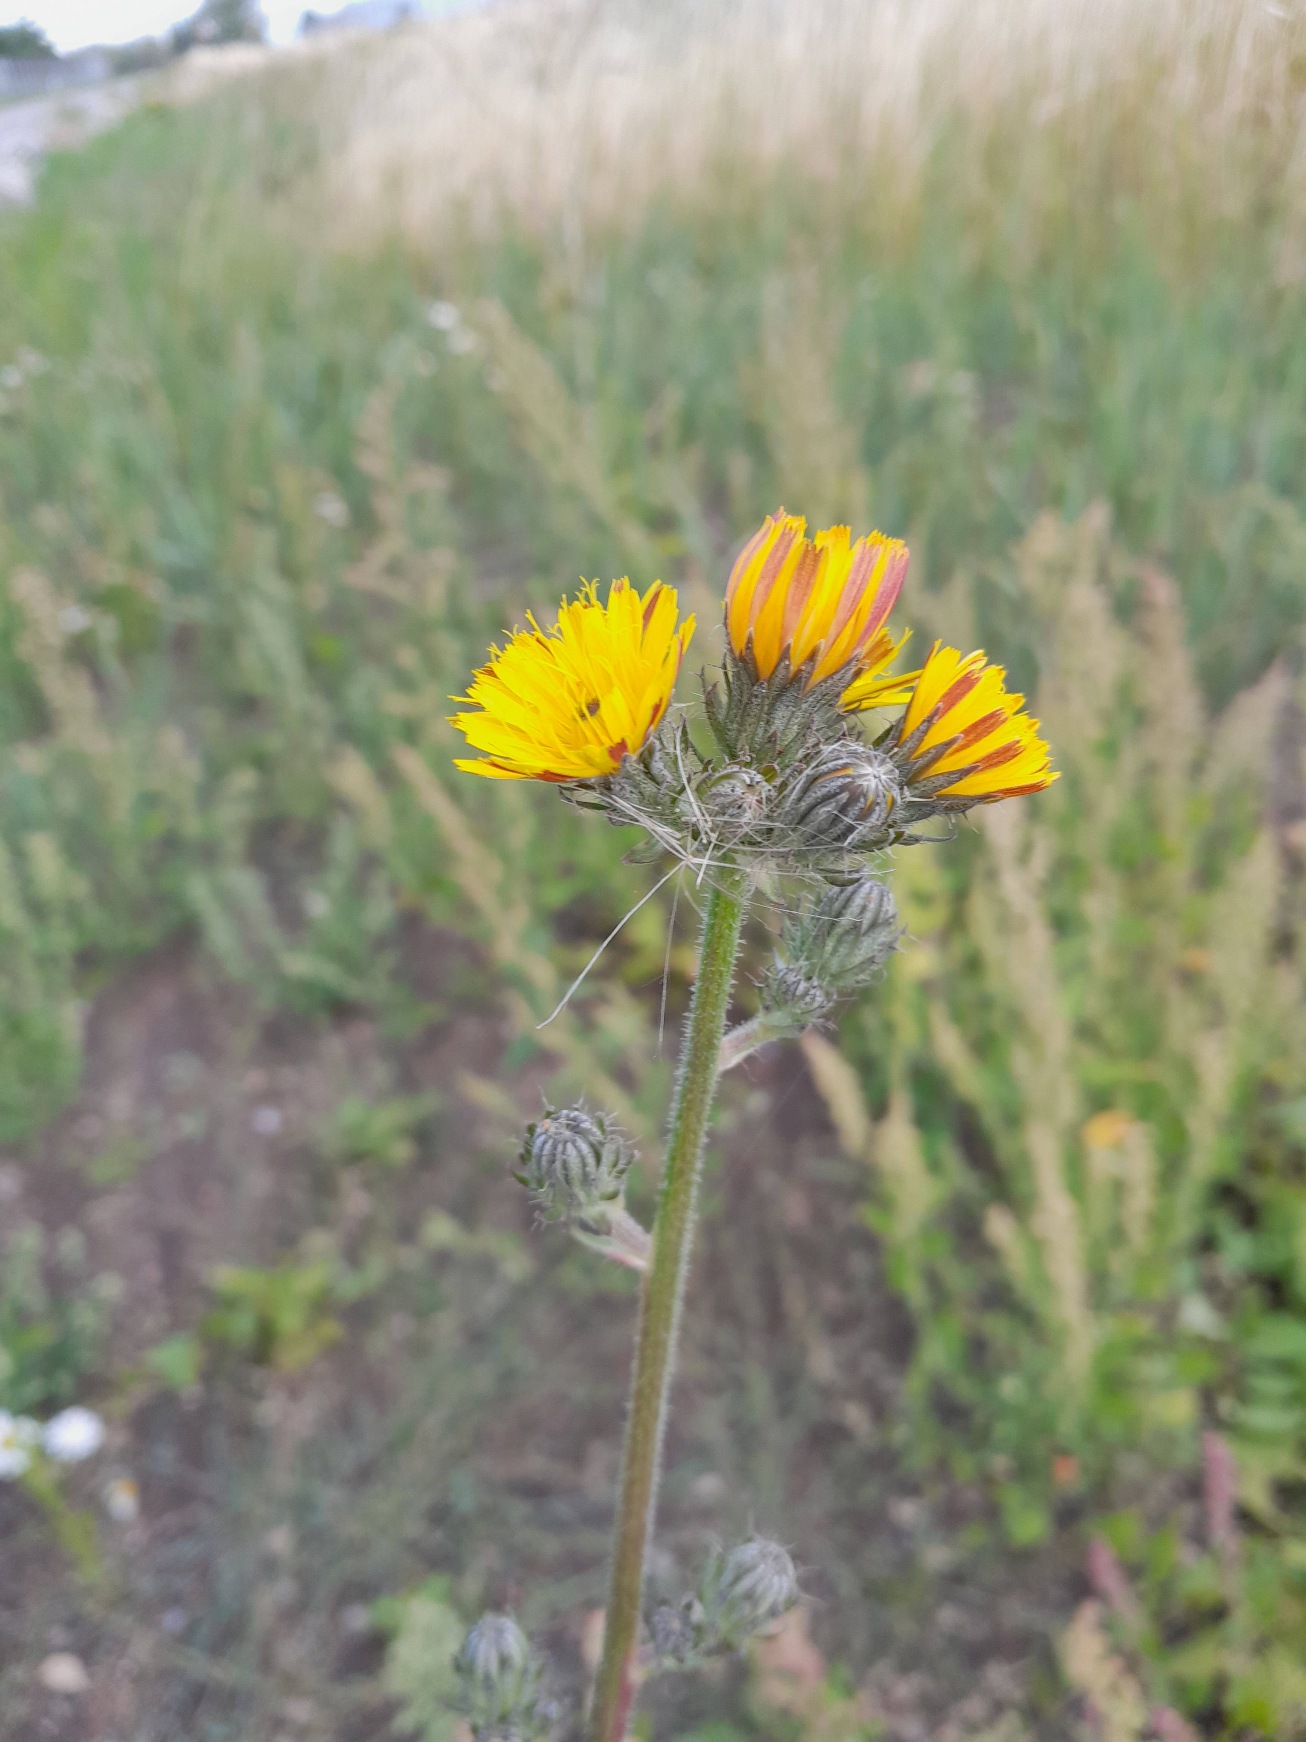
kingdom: Plantae
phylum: Tracheophyta
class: Magnoliopsida
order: Asterales
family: Asteraceae
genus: Picris
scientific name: Picris hieracioides
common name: Ru bittermælk
